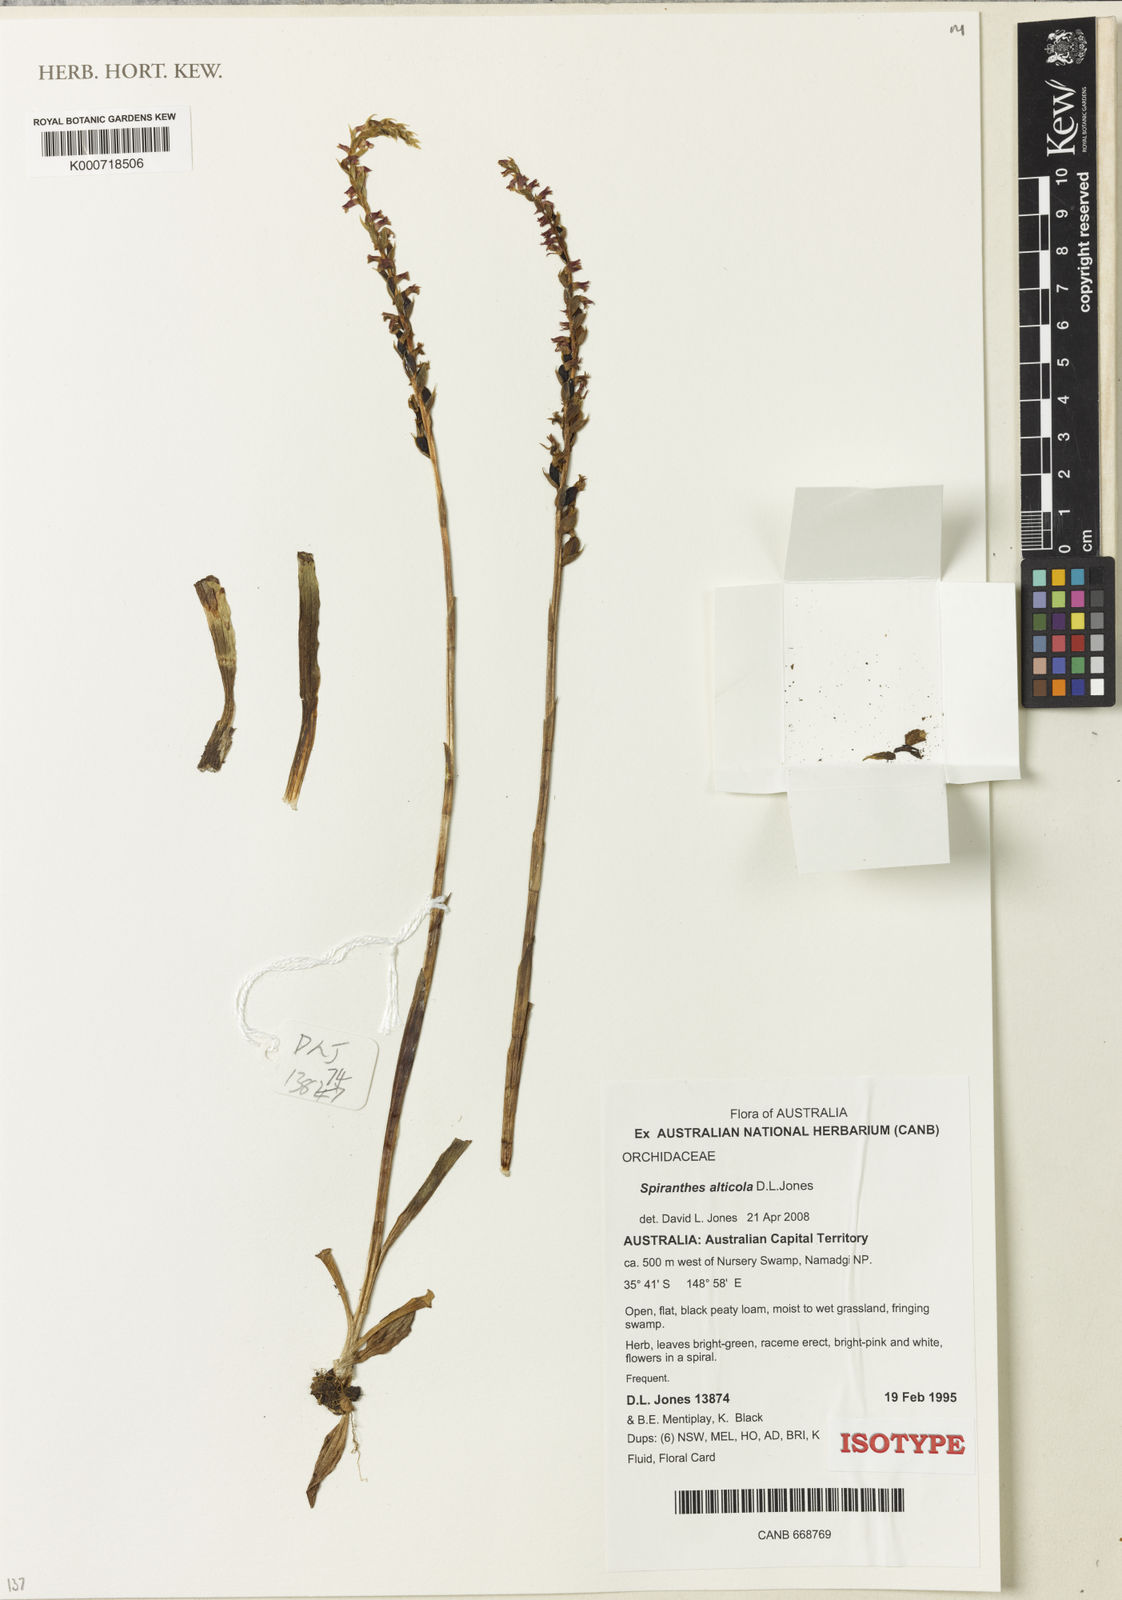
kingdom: Plantae
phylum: Tracheophyta
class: Liliopsida
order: Asparagales
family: Orchidaceae
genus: Spiranthes
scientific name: Spiranthes australis
